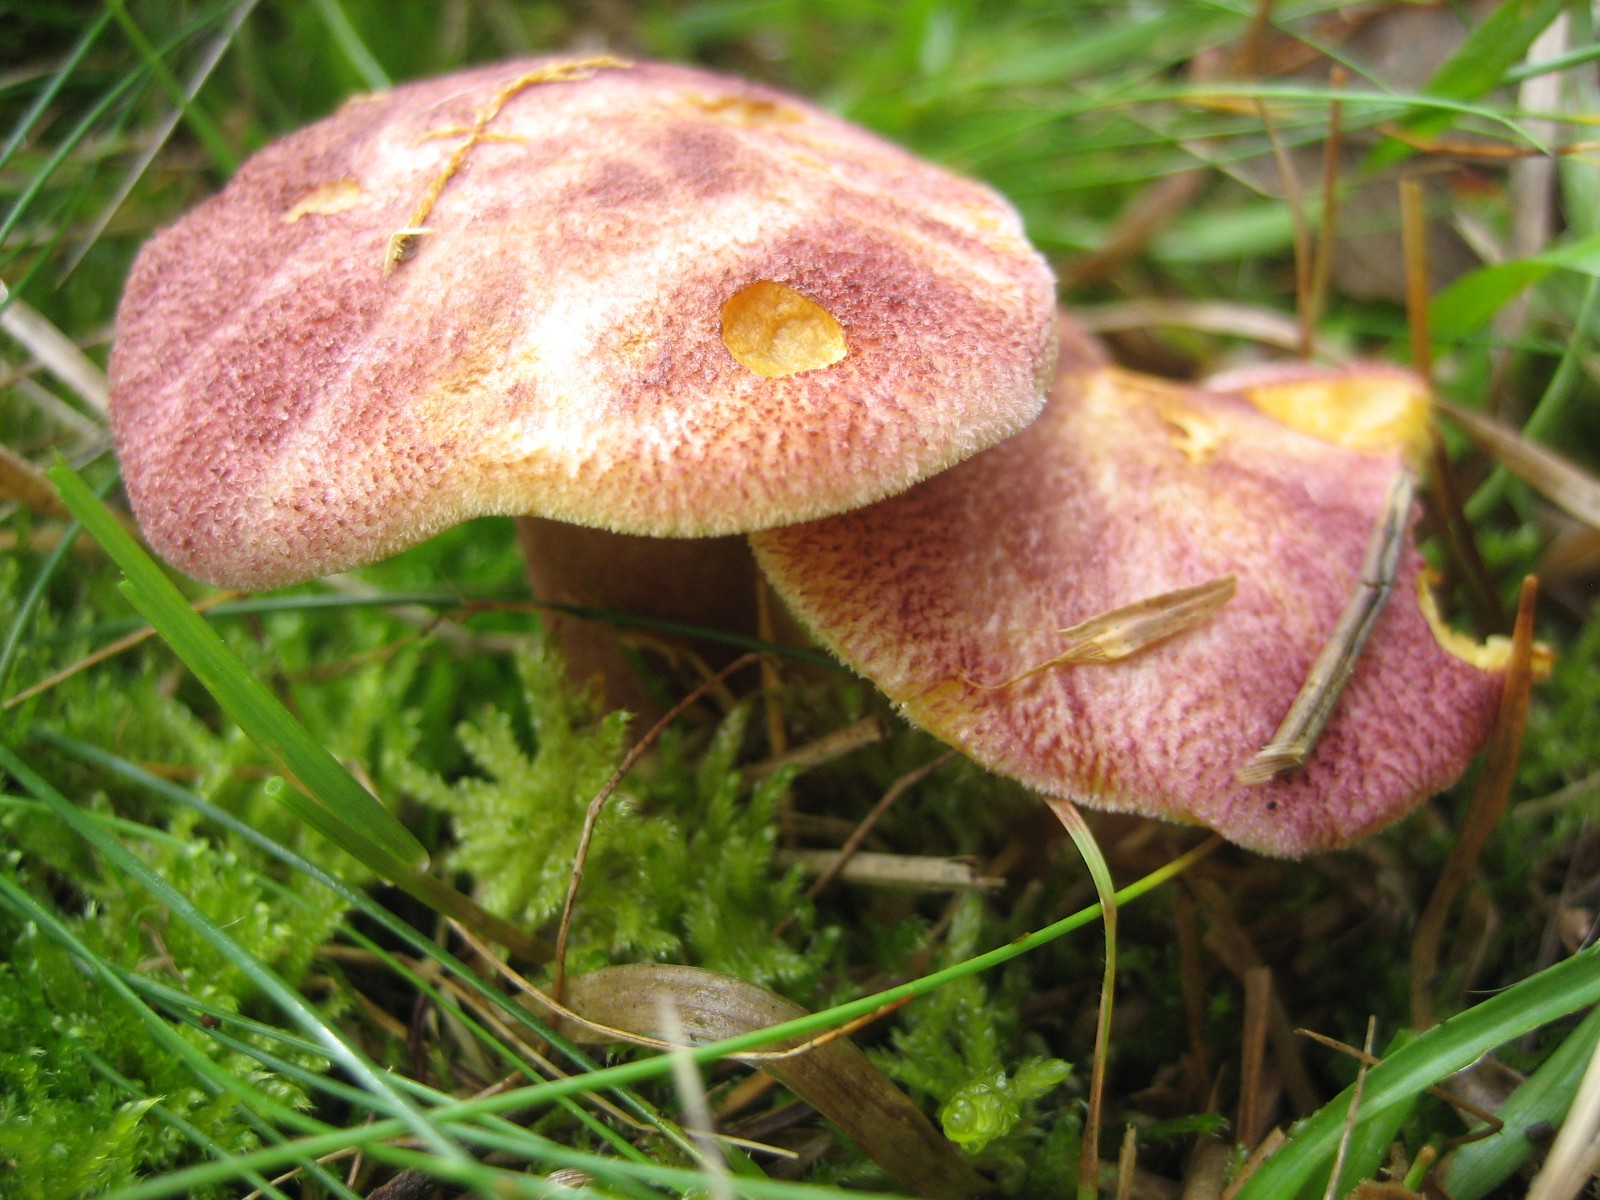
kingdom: Fungi
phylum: Basidiomycota
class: Agaricomycetes
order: Agaricales
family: Tricholomataceae
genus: Tricholomopsis
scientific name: Tricholomopsis rutilans
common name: purpur-væbnerhat
